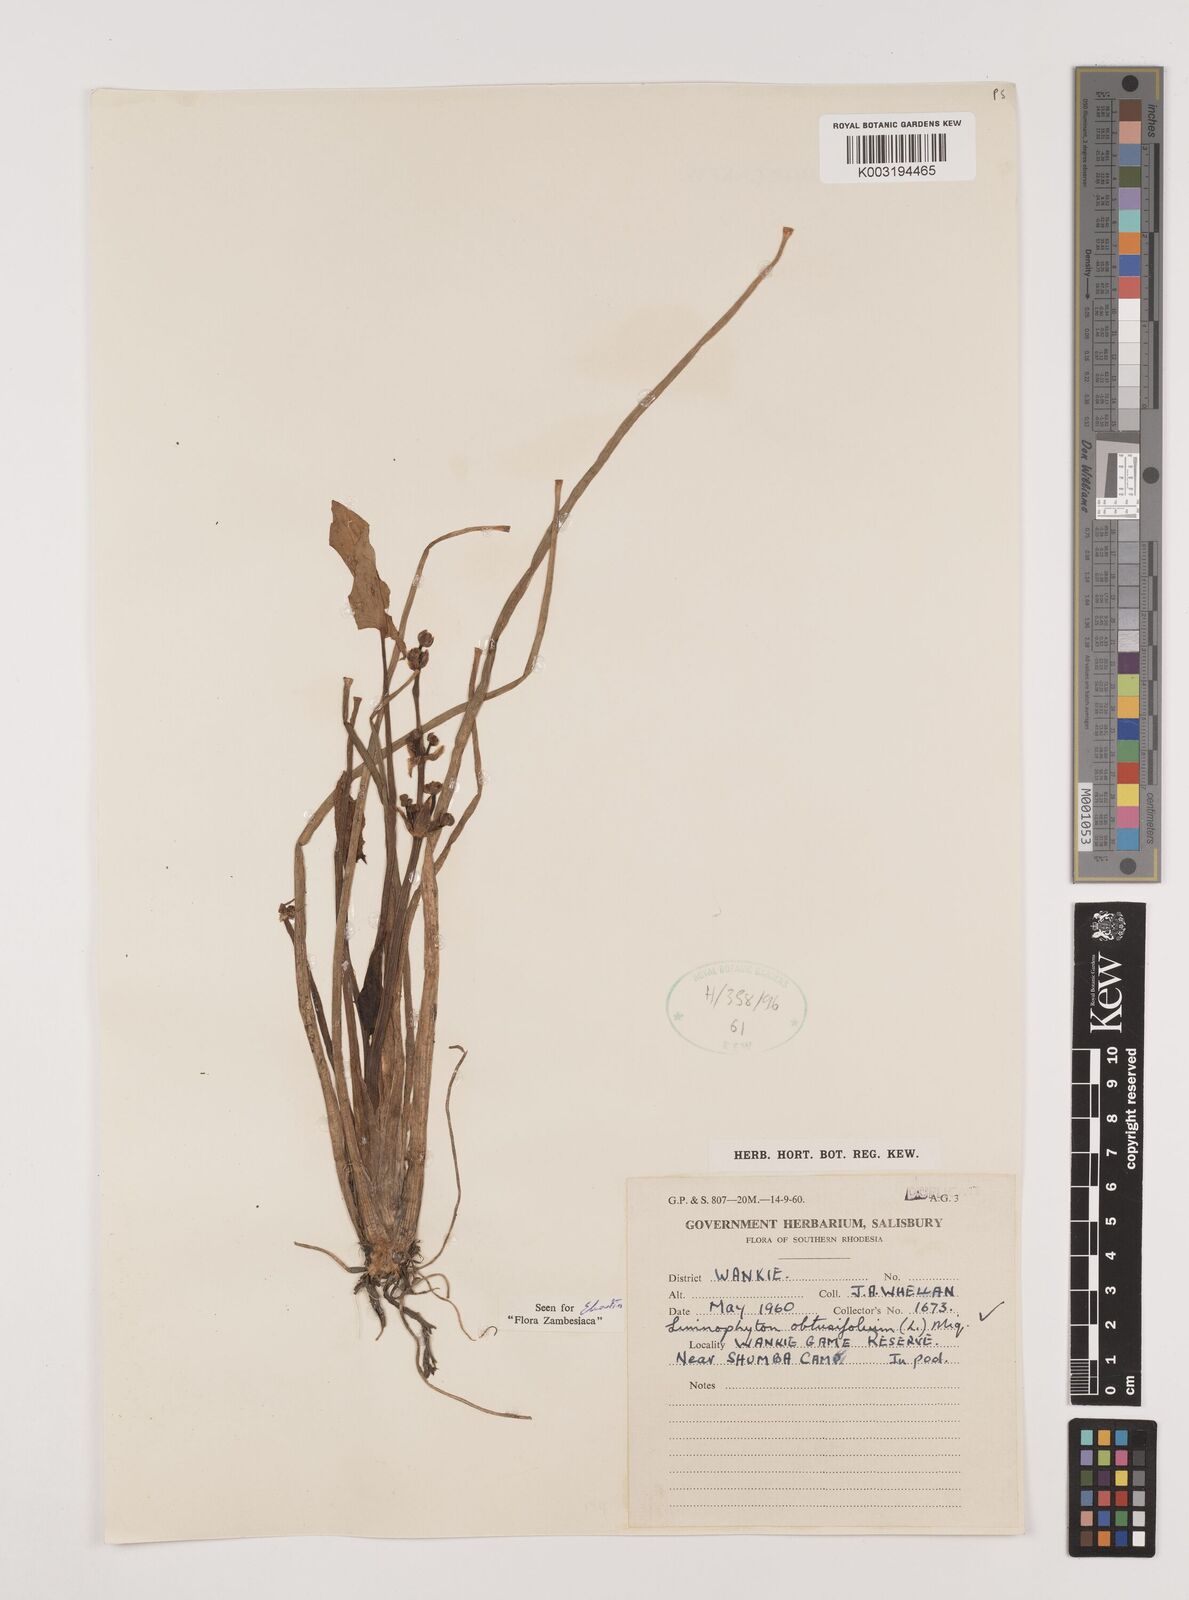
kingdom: Plantae
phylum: Tracheophyta
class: Liliopsida
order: Alismatales
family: Alismataceae
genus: Limnophyton
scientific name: Limnophyton obtusifolium
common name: Arrow head
